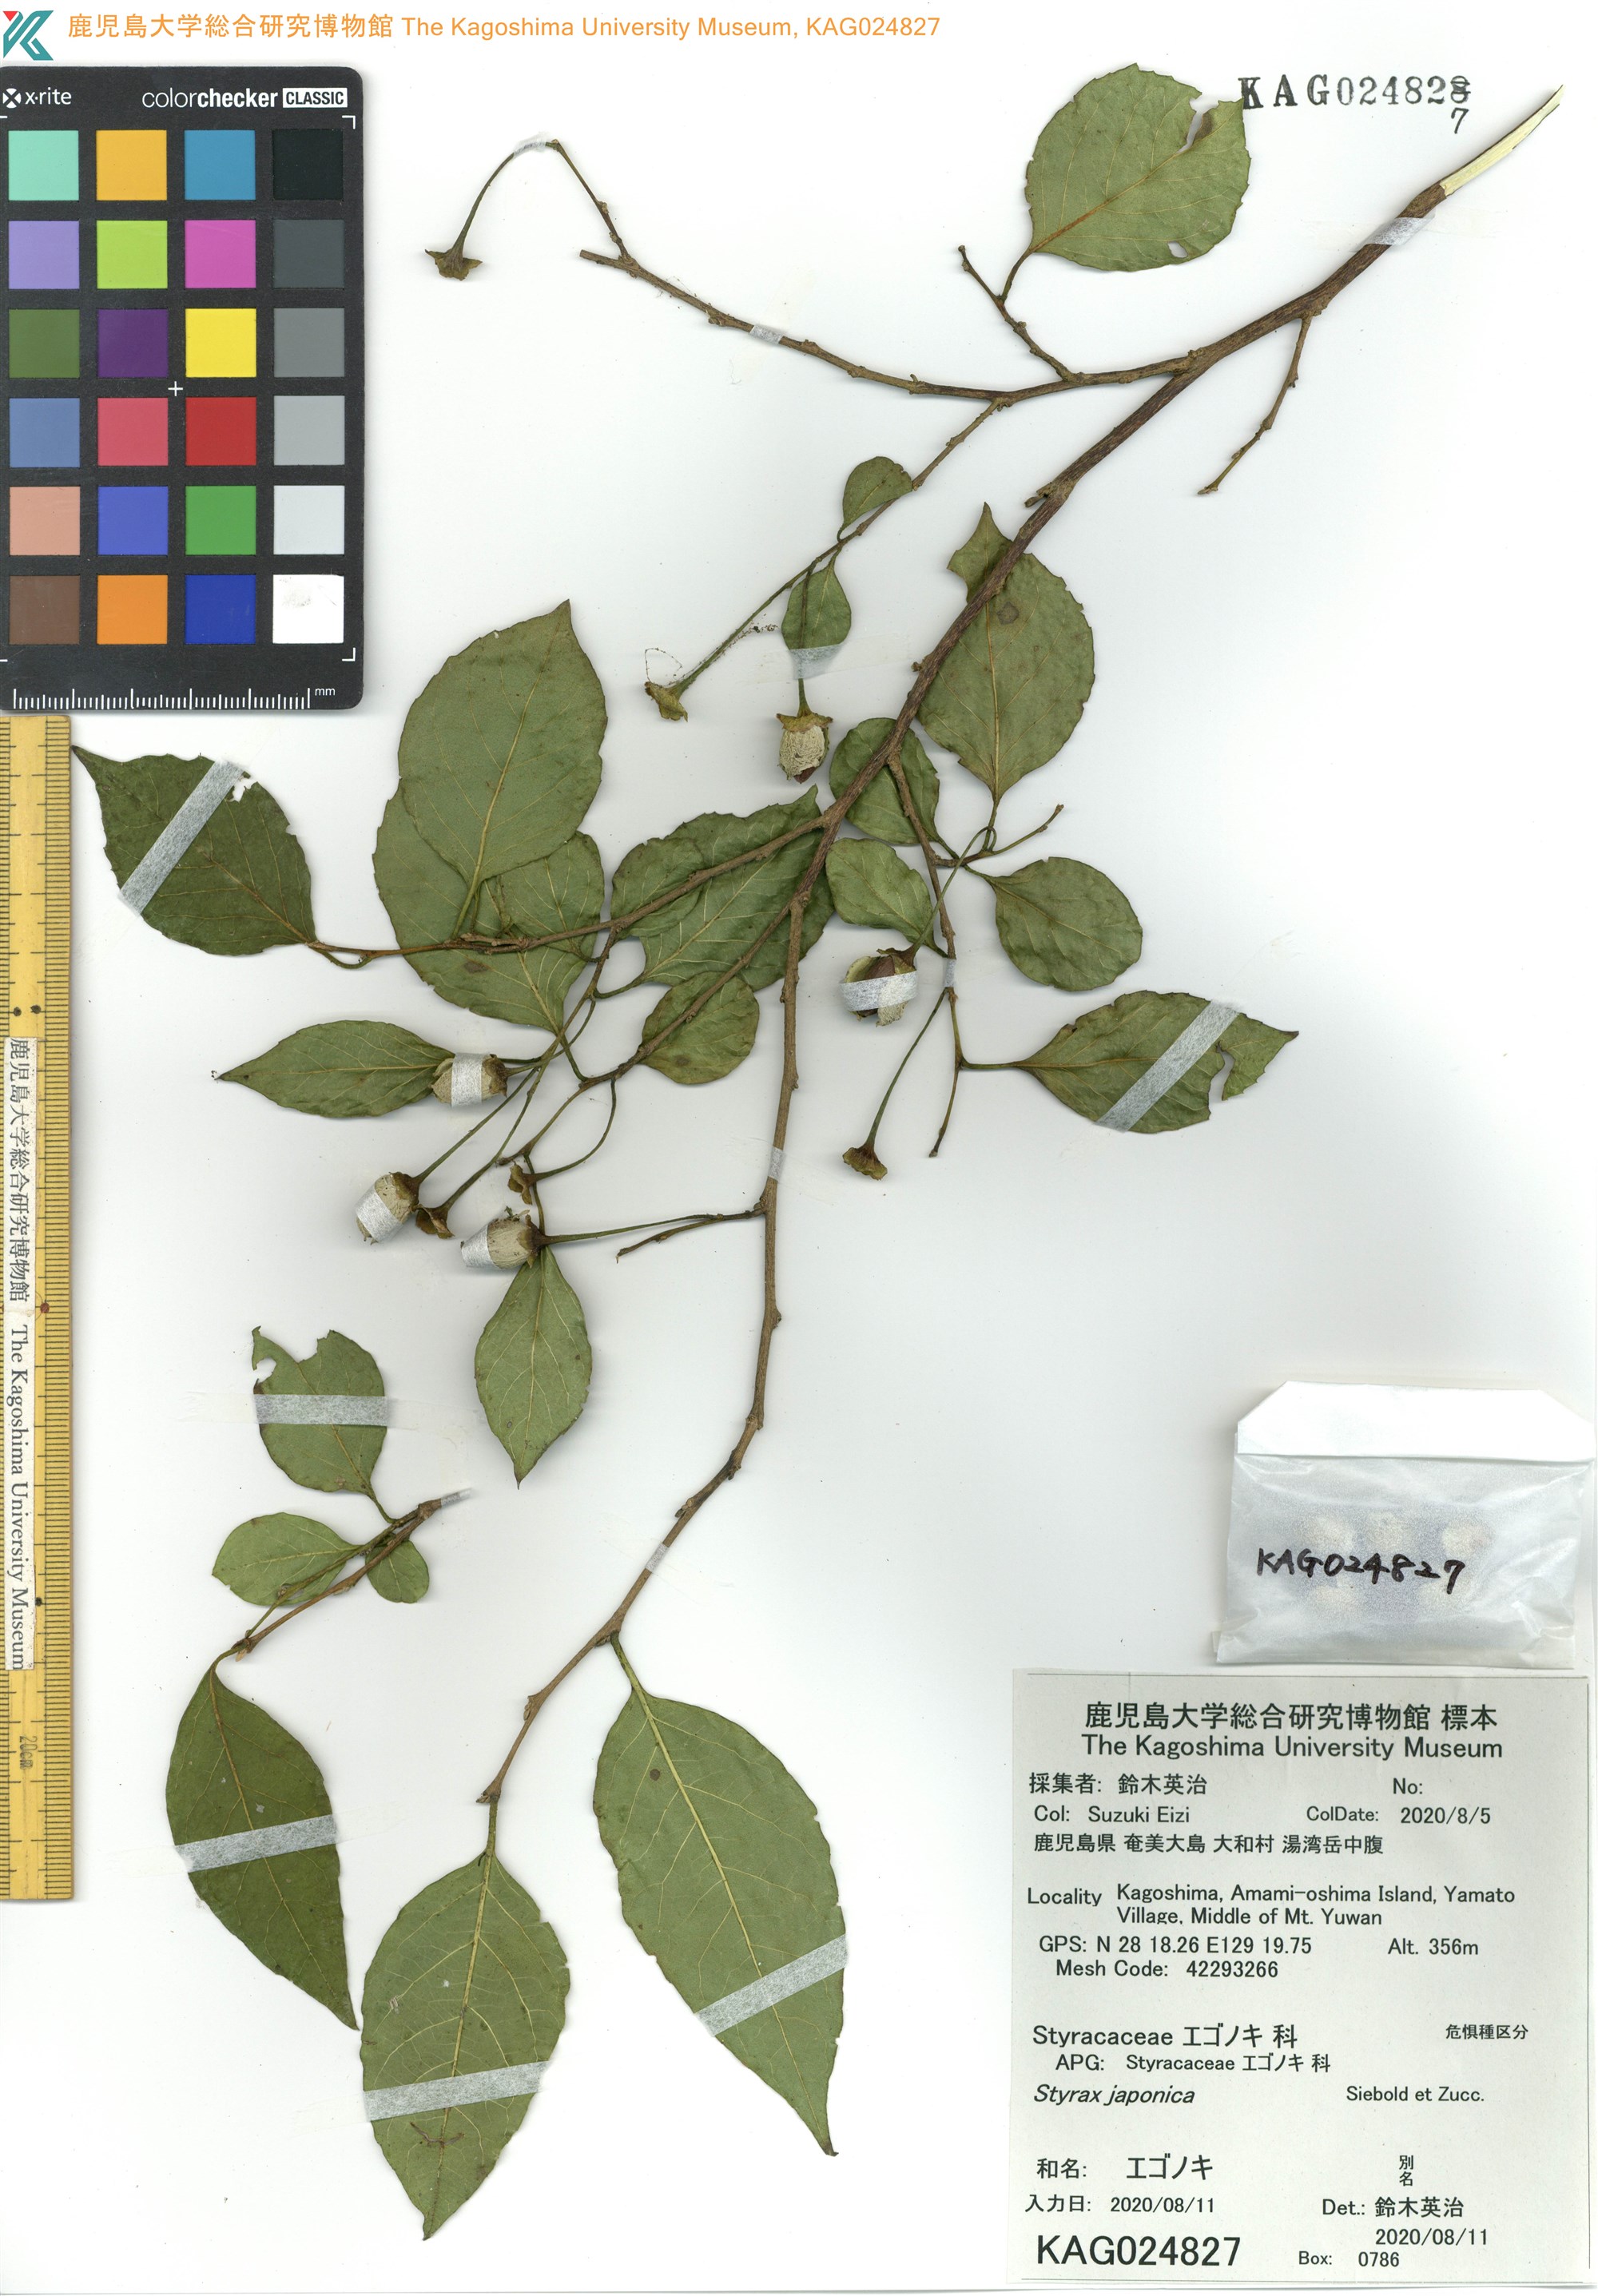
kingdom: Plantae
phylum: Tracheophyta
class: Magnoliopsida
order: Ericales
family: Styracaceae
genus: Styrax
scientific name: Styrax japonicus
